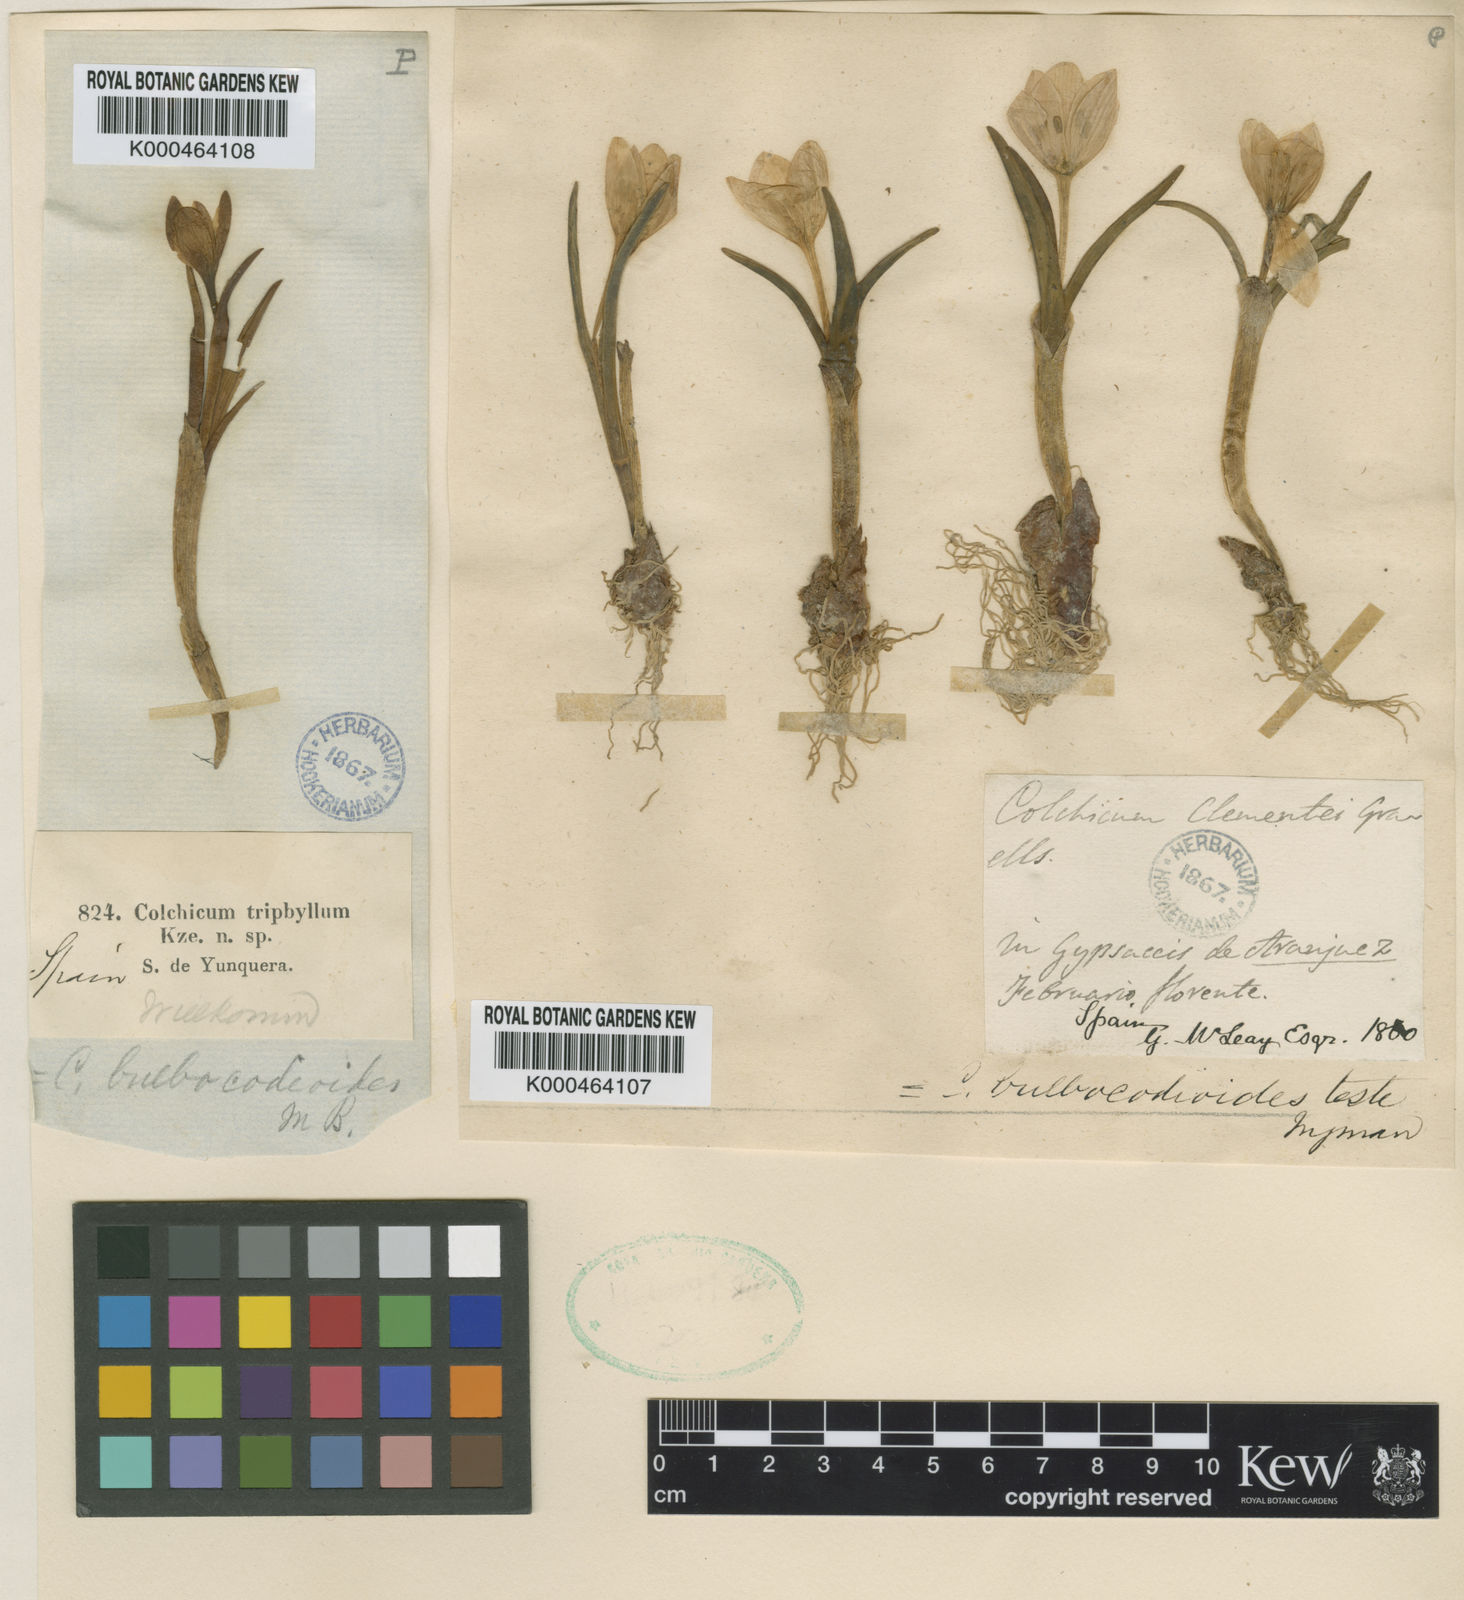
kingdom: Plantae
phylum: Tracheophyta
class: Liliopsida
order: Liliales
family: Colchicaceae
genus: Colchicum
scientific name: Colchicum triphyllum
